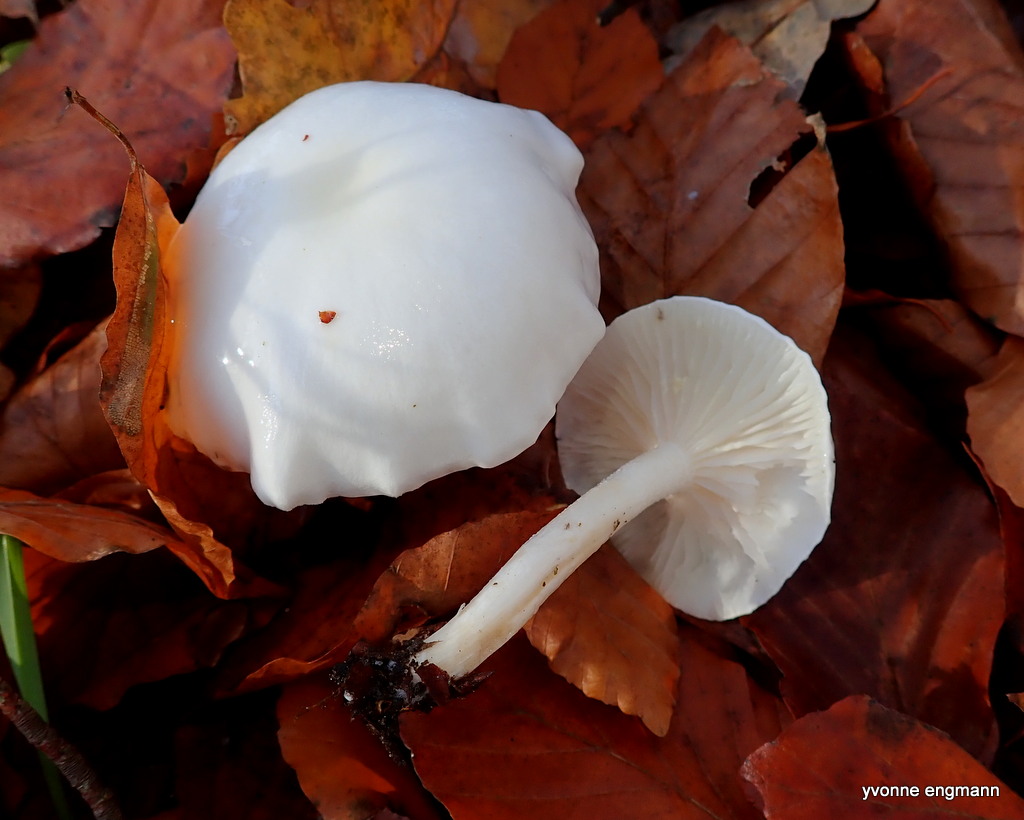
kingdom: Fungi
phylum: Basidiomycota
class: Agaricomycetes
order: Agaricales
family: Hygrophoraceae
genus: Hygrophorus
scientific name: Hygrophorus eburneus
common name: elfenbens-sneglehat
